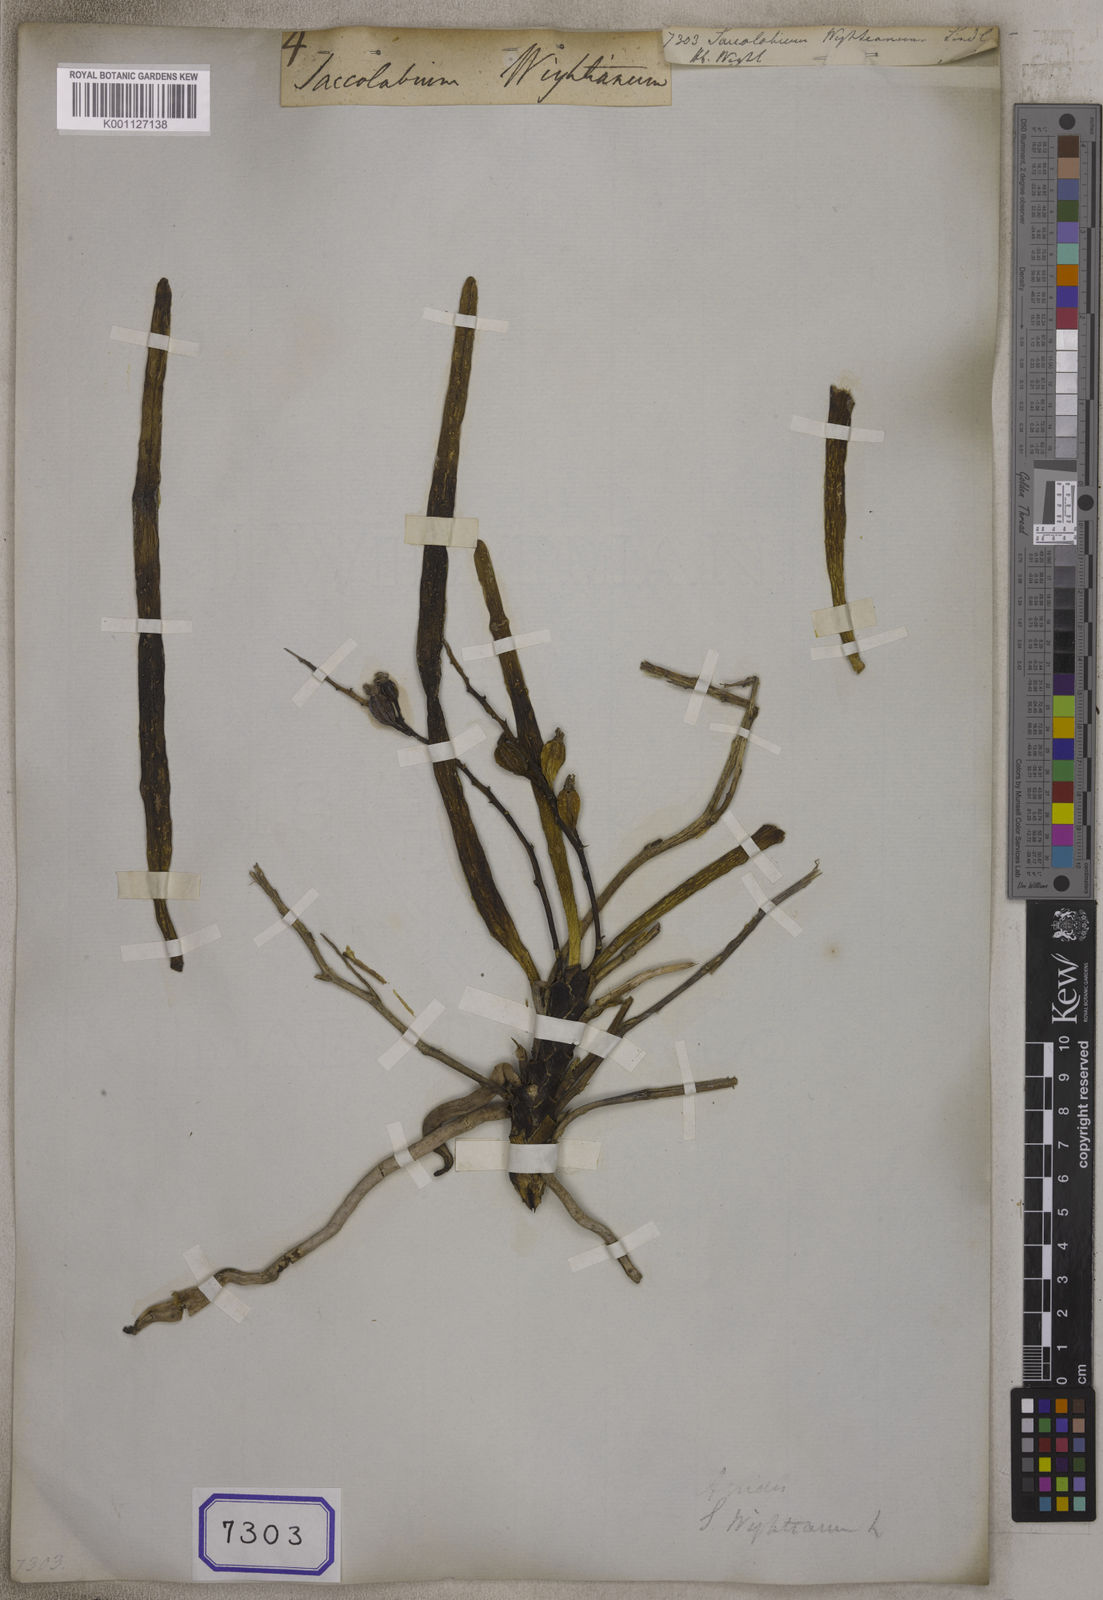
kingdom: Plantae
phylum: Tracheophyta
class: Liliopsida
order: Asparagales
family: Orchidaceae
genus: Aerides
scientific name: Aerides ringens
